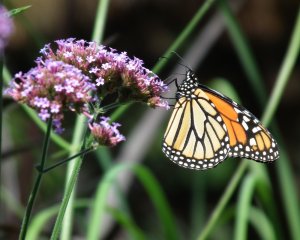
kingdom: Animalia
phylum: Arthropoda
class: Insecta
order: Lepidoptera
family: Nymphalidae
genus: Danaus
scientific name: Danaus plexippus
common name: Monarch
